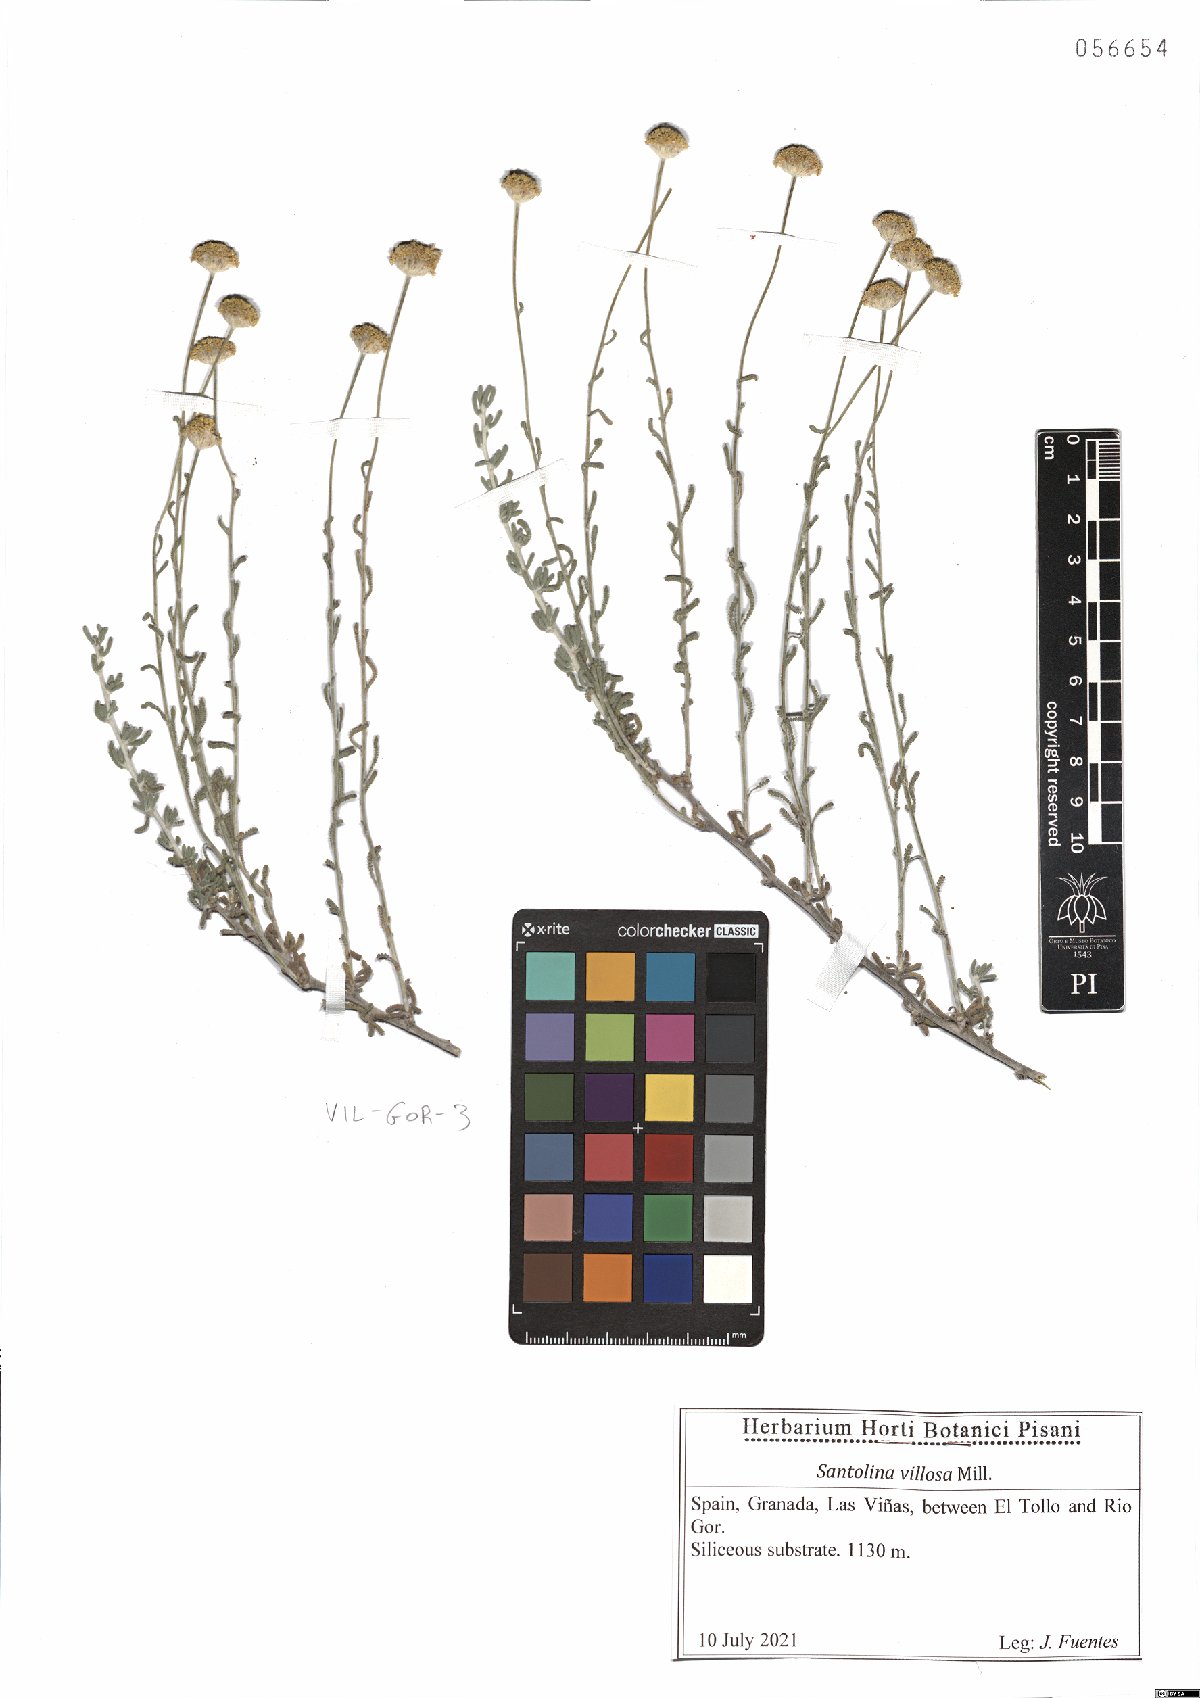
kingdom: Plantae
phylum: Tracheophyta
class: Magnoliopsida
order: Asterales
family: Asteraceae
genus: Santolina
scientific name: Santolina chamaecyparissus
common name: Lavender-cotton
